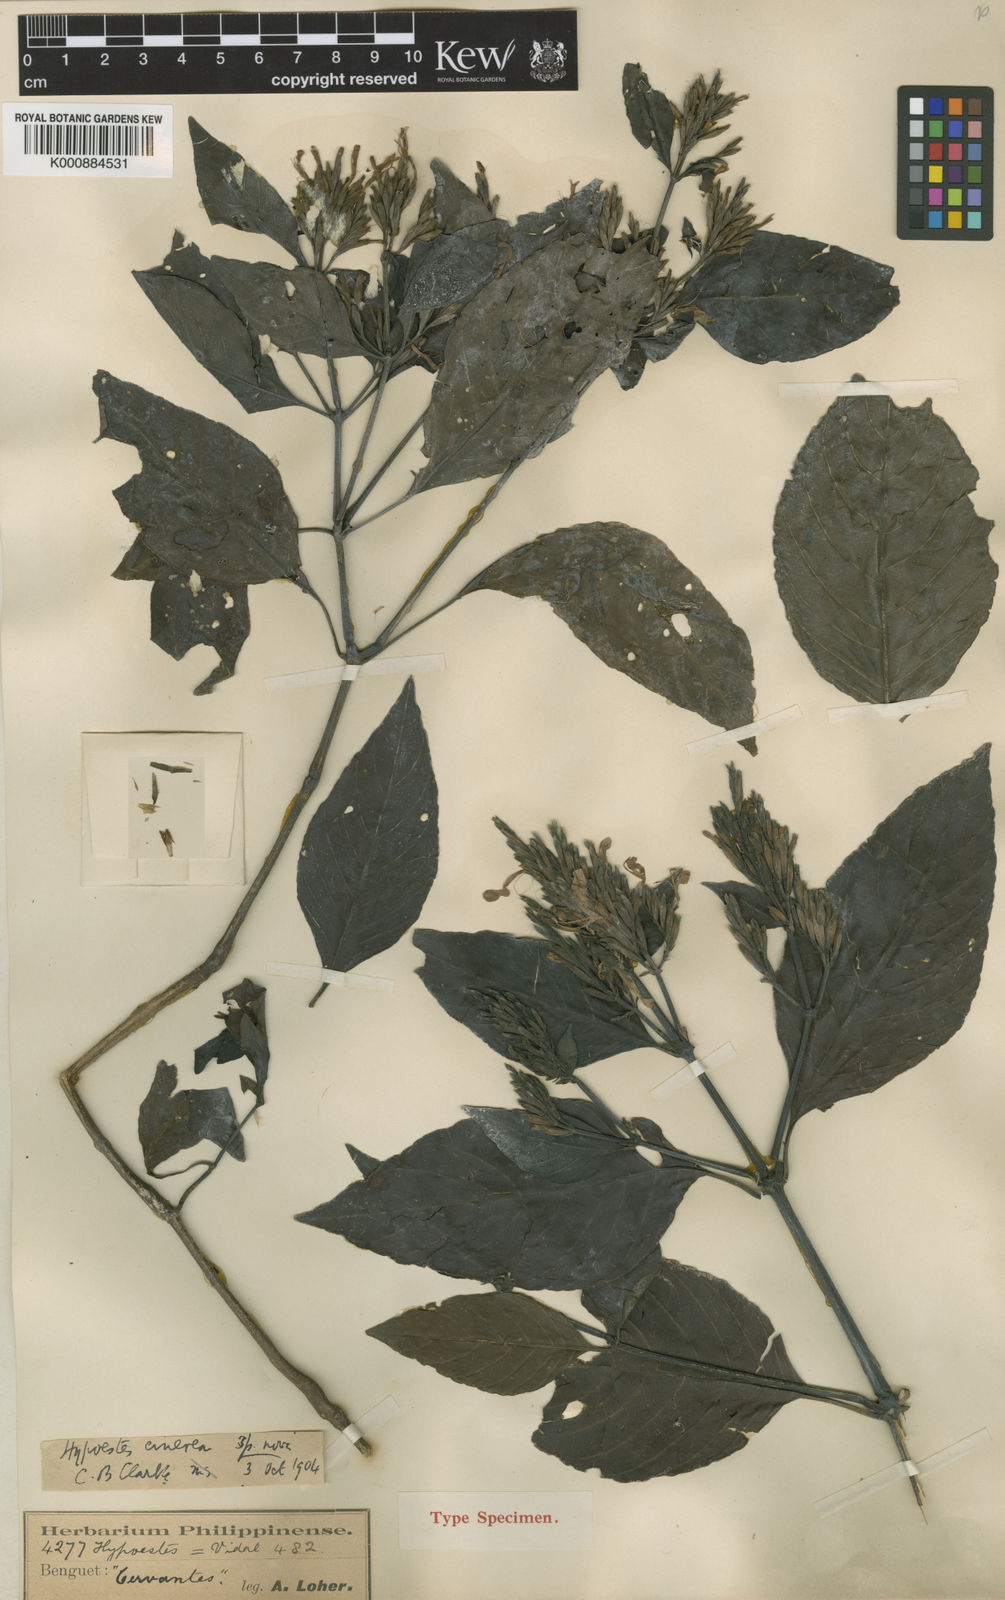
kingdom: Plantae
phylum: Tracheophyta
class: Magnoliopsida
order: Lamiales
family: Acanthaceae
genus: Hypoestes
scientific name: Hypoestes cinerea
